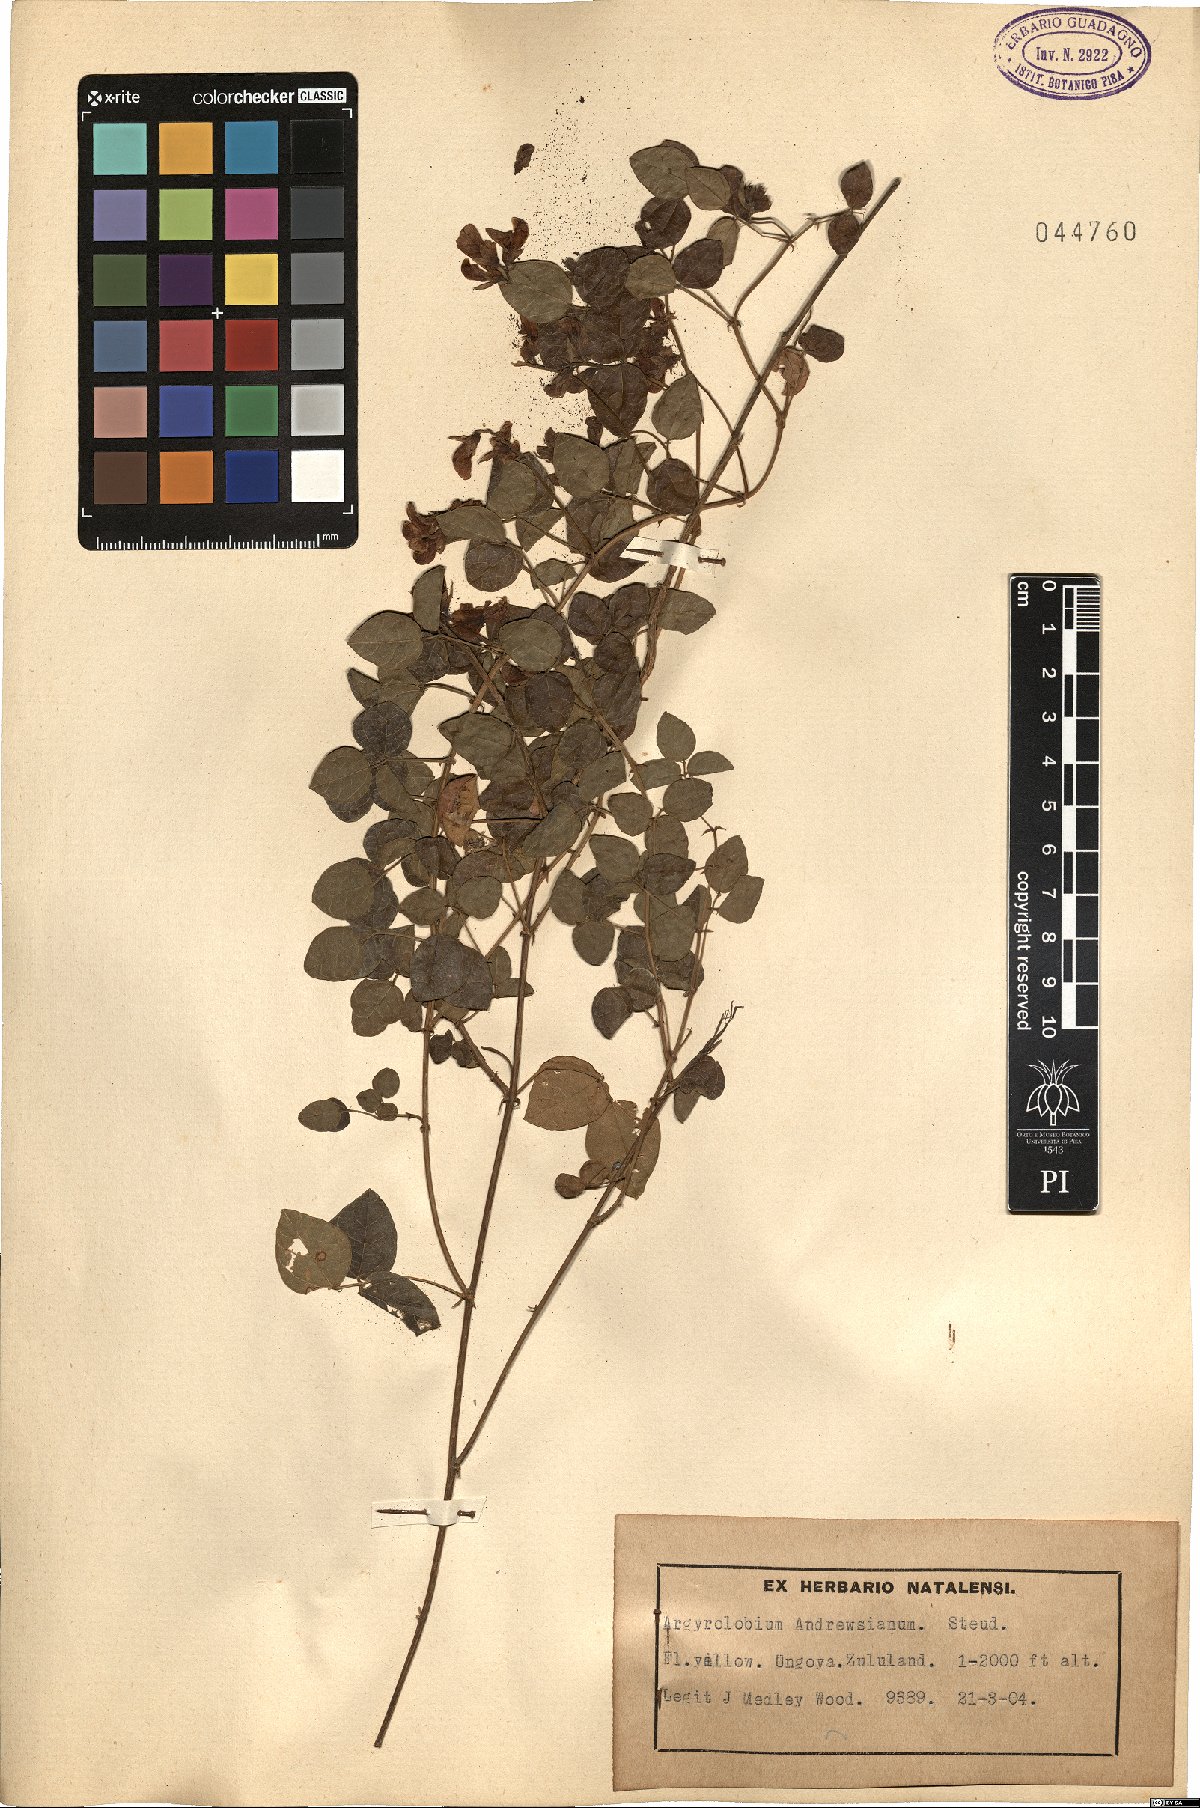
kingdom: Plantae
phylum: Tracheophyta
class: Magnoliopsida
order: Fabales
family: Fabaceae
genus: Argyrolobium
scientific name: Argyrolobium tomentosum
